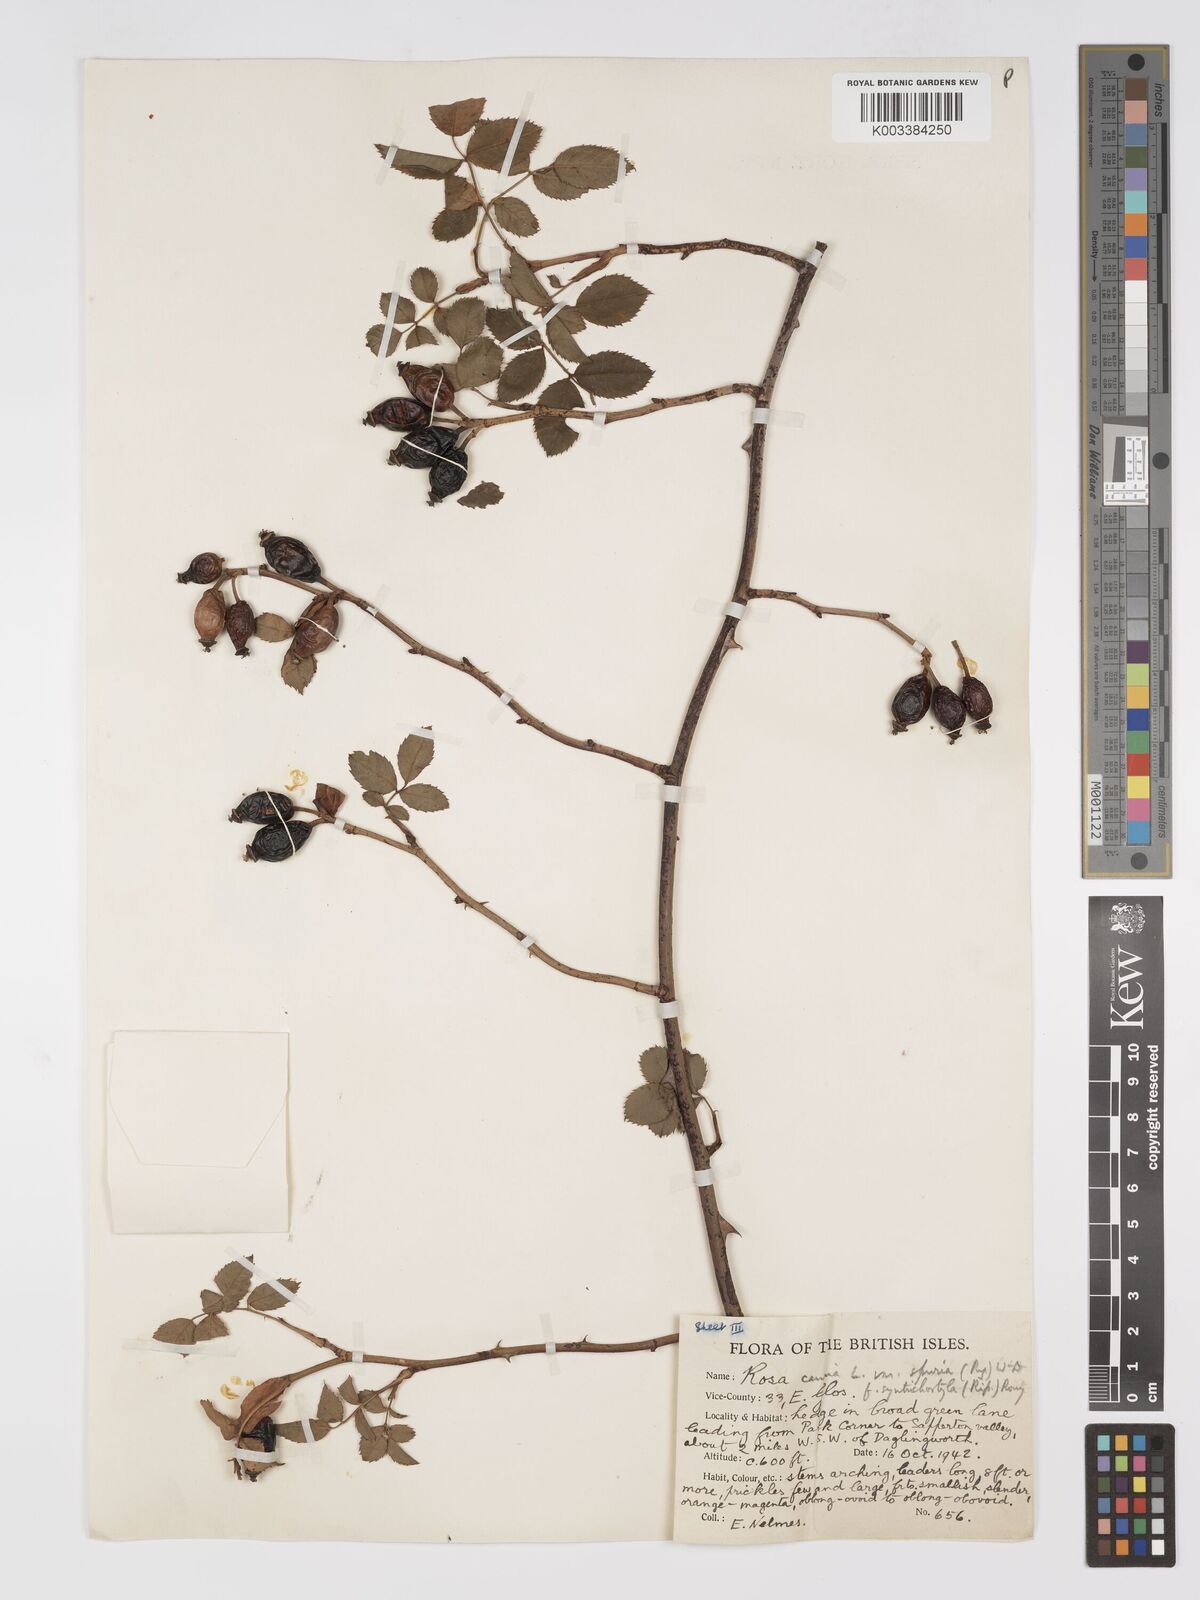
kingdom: Plantae
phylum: Tracheophyta
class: Magnoliopsida
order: Rosales
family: Rosaceae
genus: Rosa
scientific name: Rosa canina
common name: Dog rose
